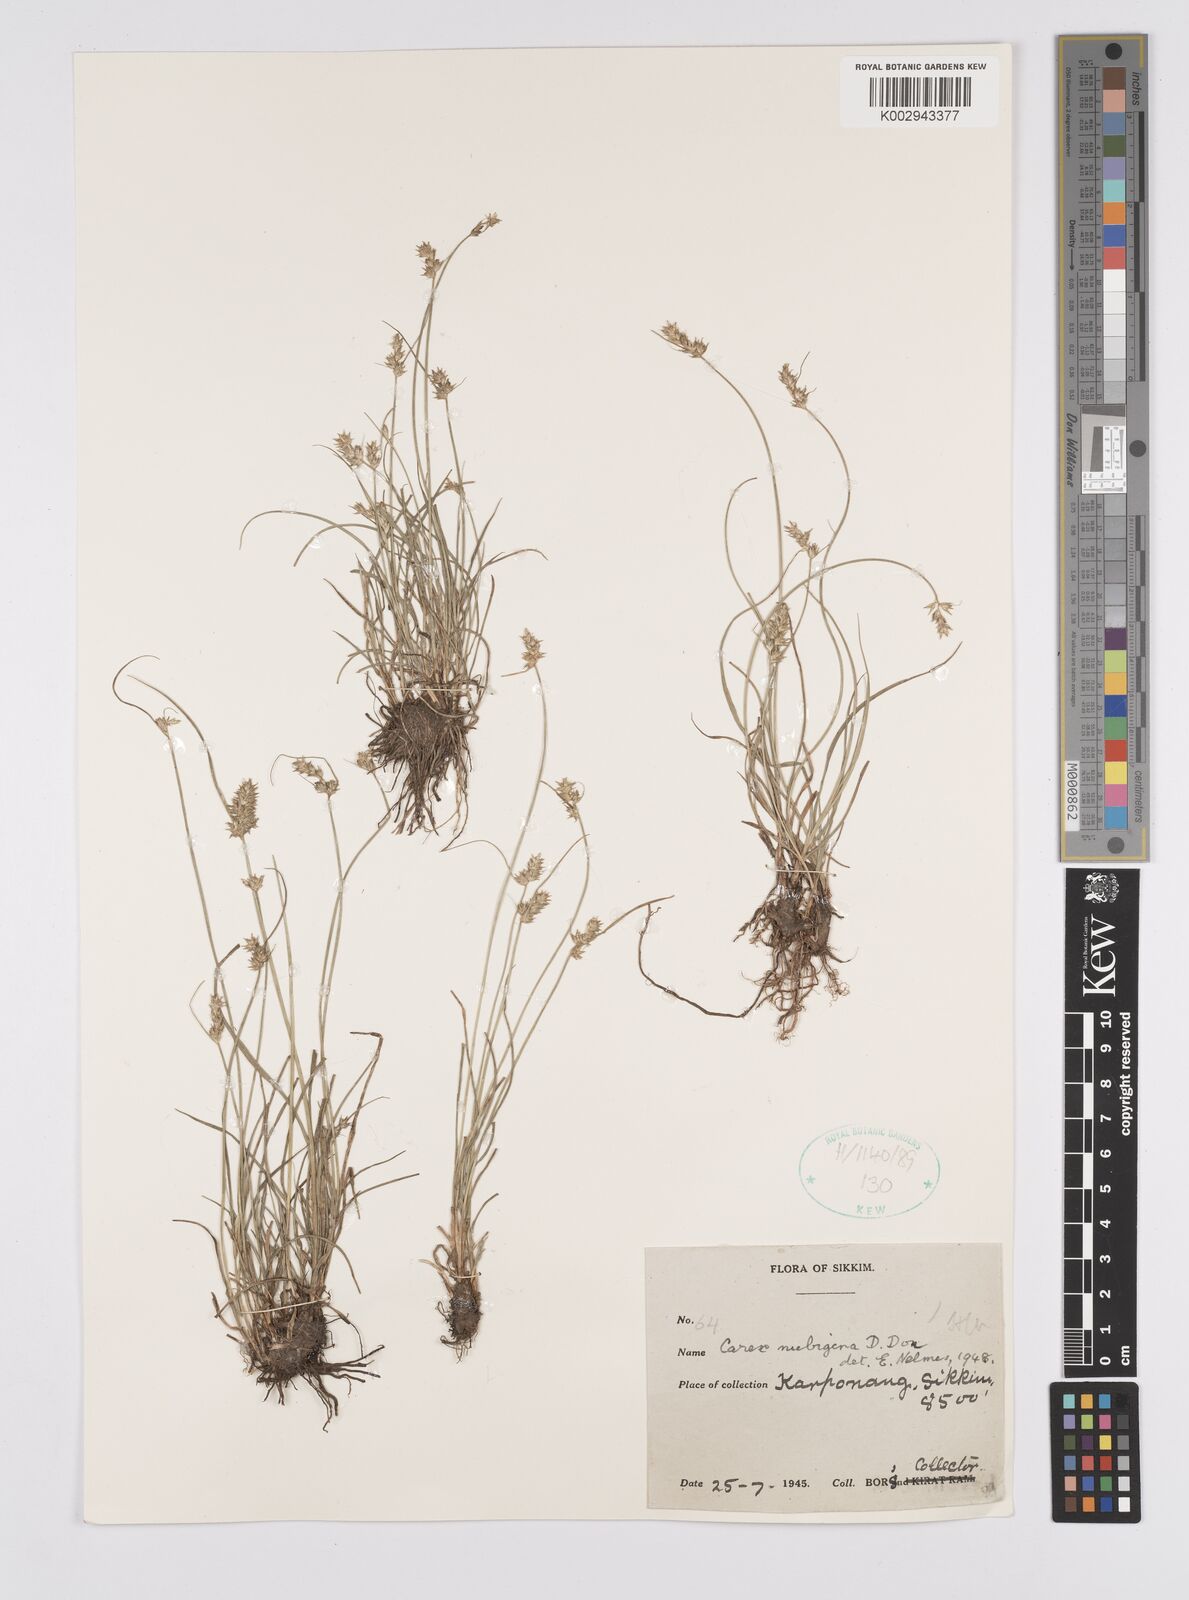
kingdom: Plantae
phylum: Tracheophyta
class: Liliopsida
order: Poales
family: Cyperaceae
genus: Carex
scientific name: Carex nubigena
